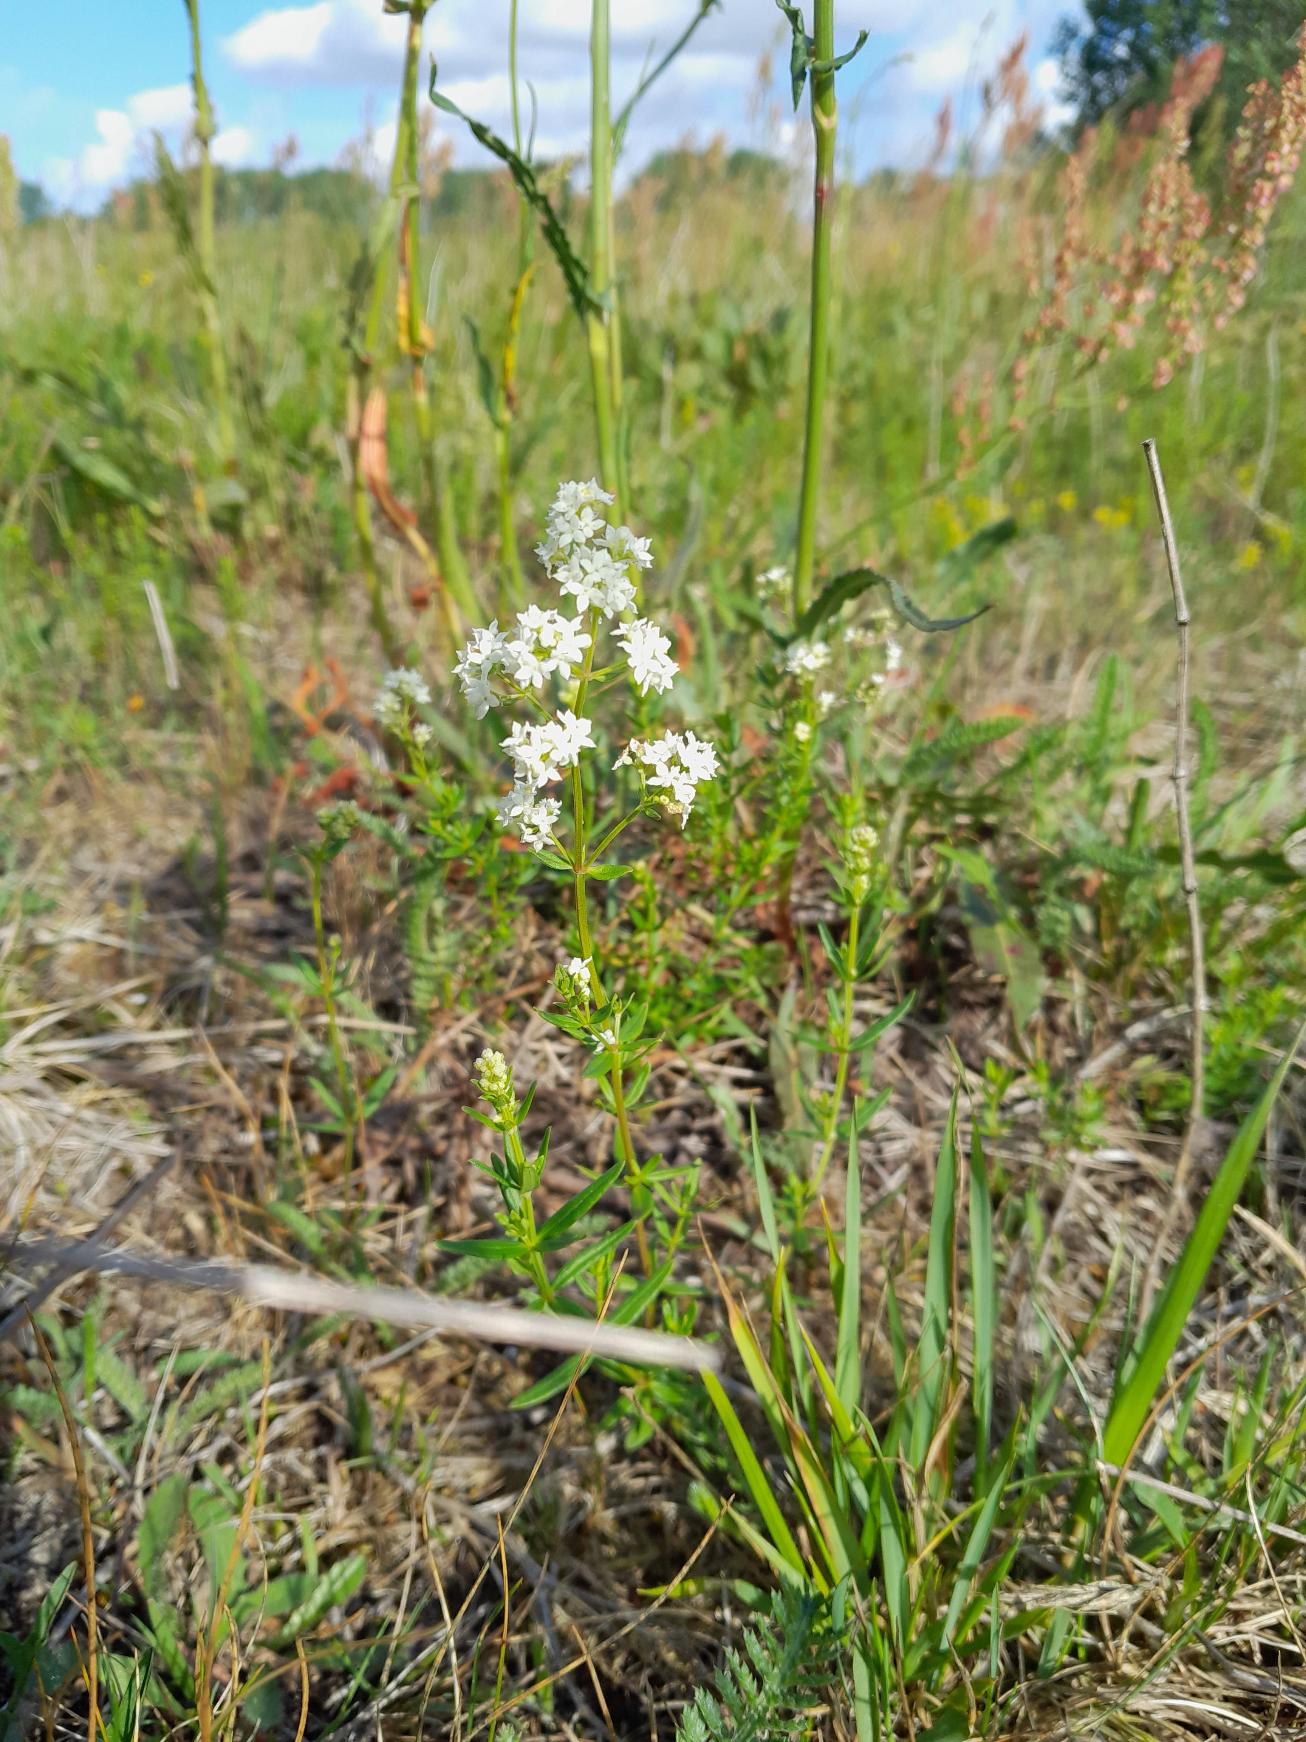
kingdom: Plantae
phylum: Tracheophyta
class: Magnoliopsida
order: Gentianales
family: Rubiaceae
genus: Galium
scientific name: Galium boreale
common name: Trenervet snerre
